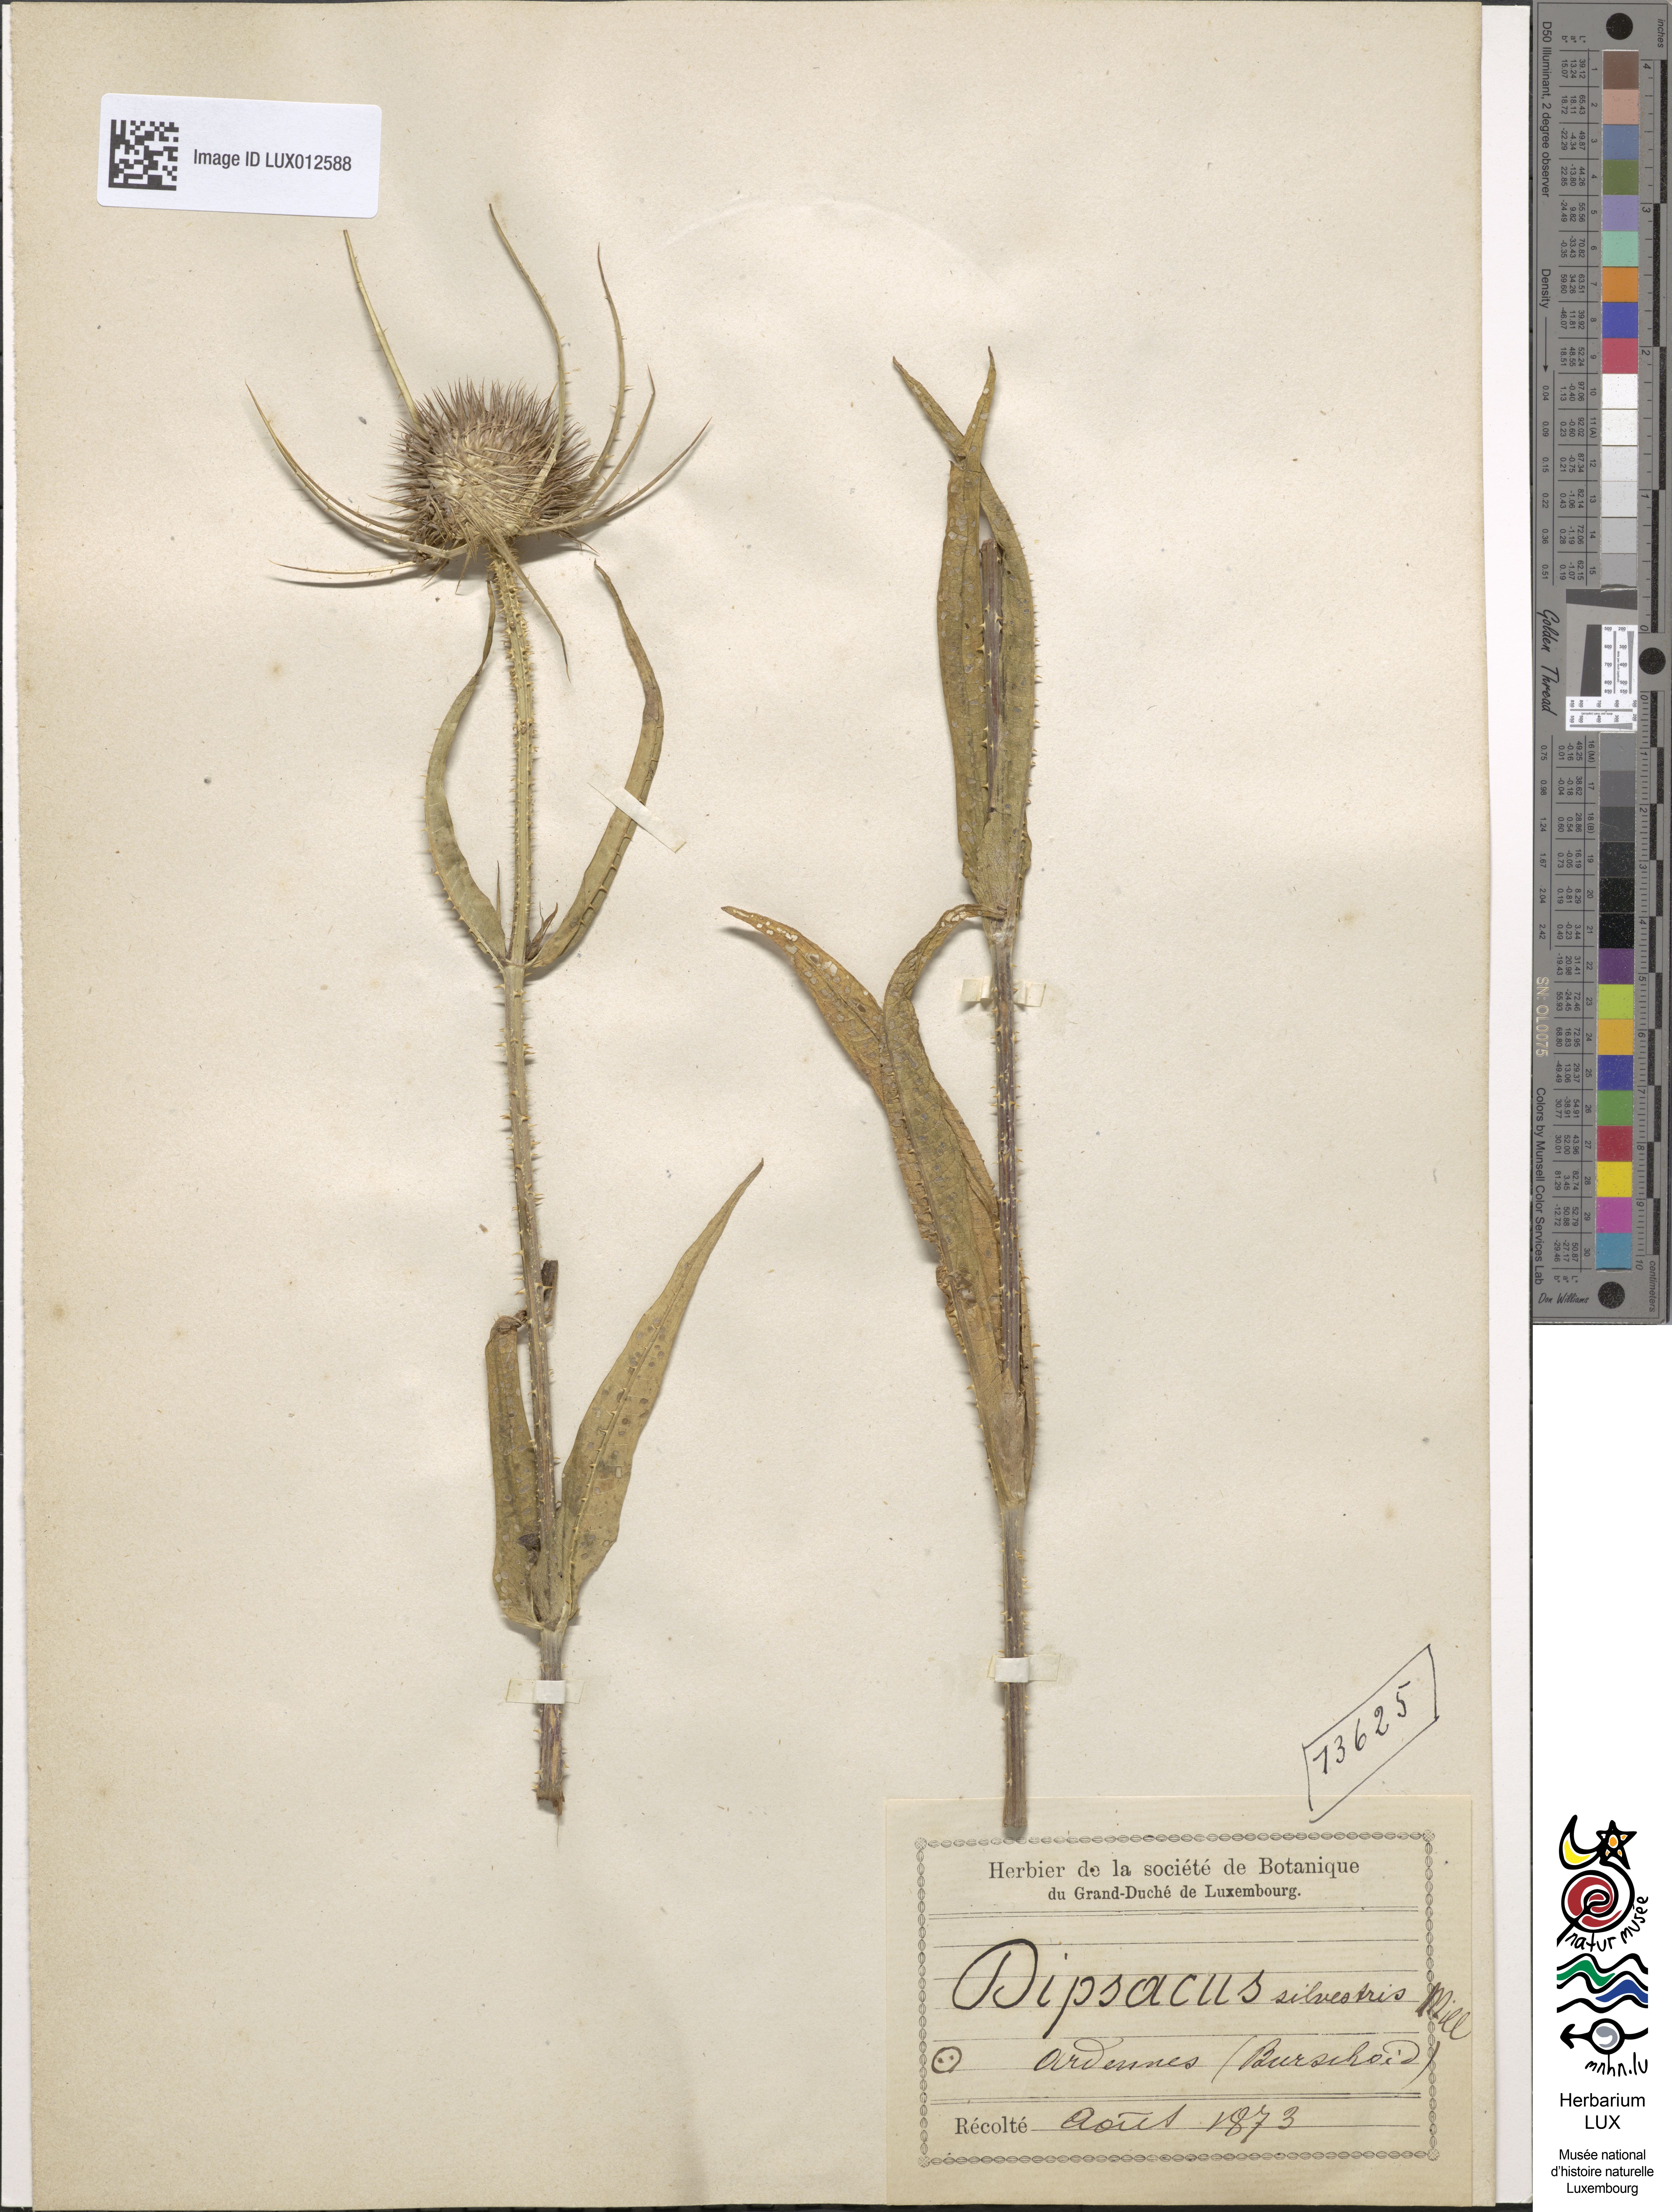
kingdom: Plantae
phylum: Tracheophyta
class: Magnoliopsida
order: Dipsacales
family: Caprifoliaceae
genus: Dipsacus
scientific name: Dipsacus fullonum
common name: Teasel
